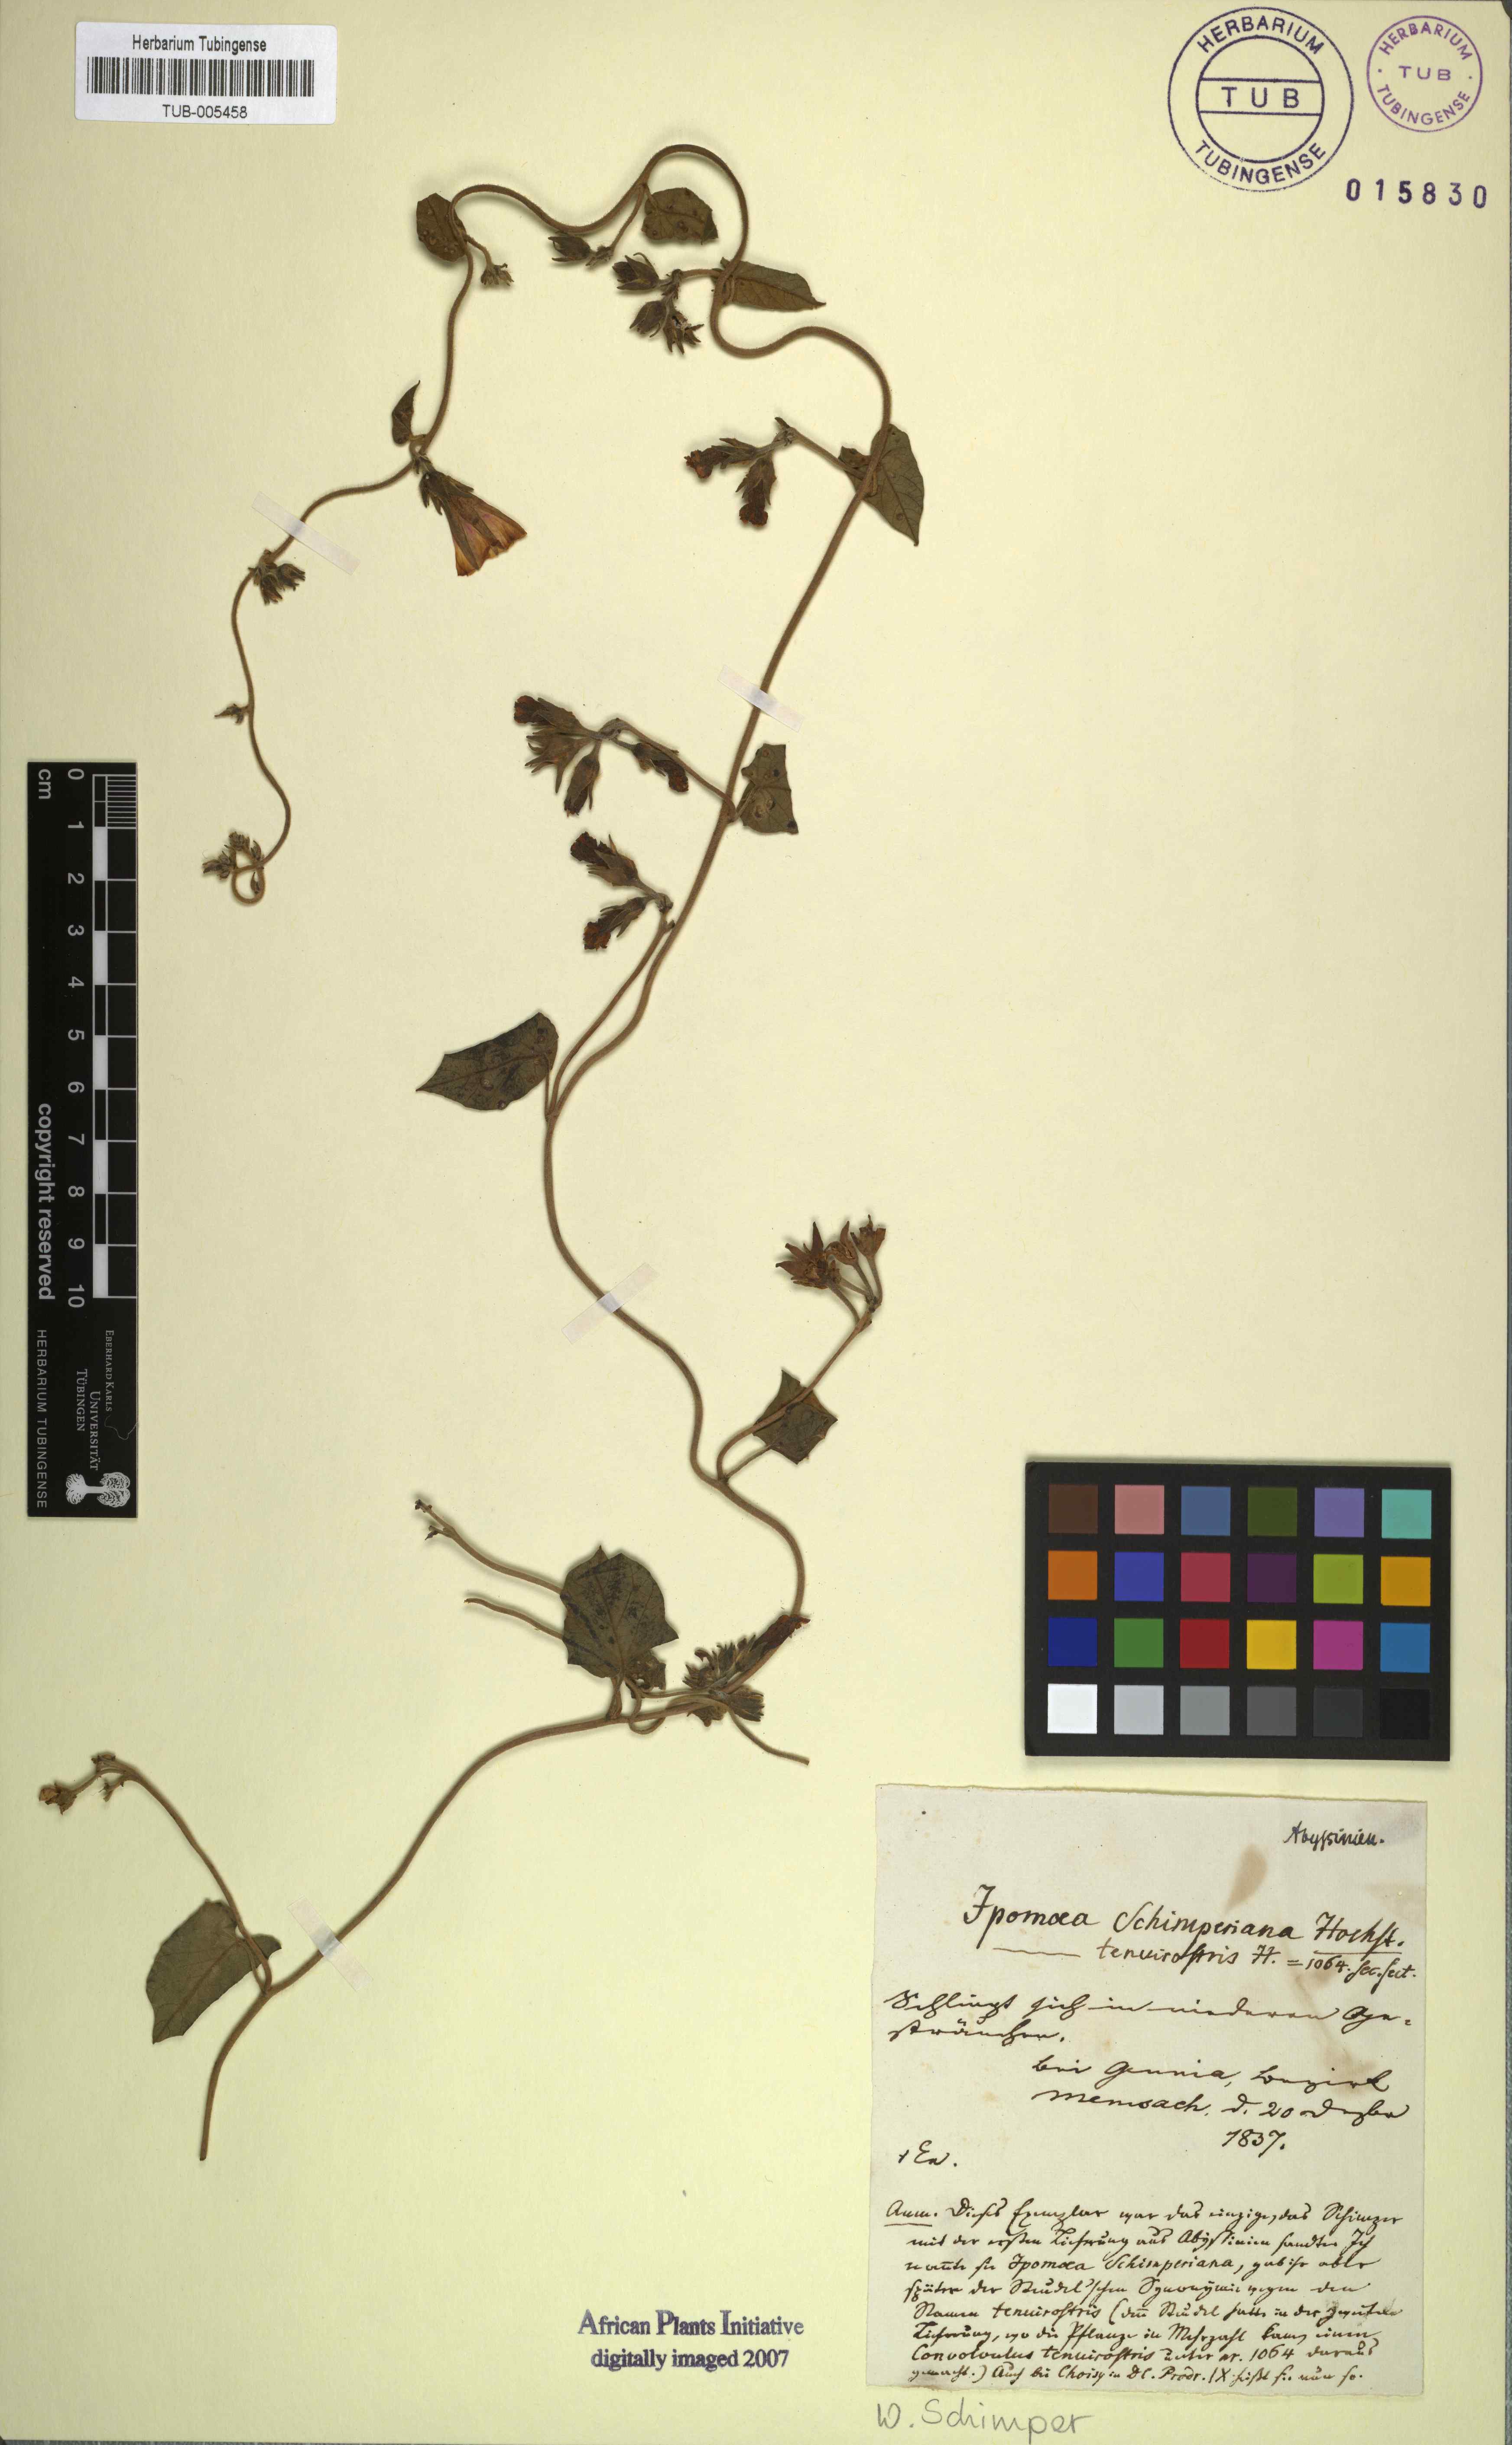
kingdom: Plantae
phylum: Tracheophyta
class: Magnoliopsida
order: Solanales
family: Convolvulaceae
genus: Ipomoea
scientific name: Ipomoea tenuirostris
